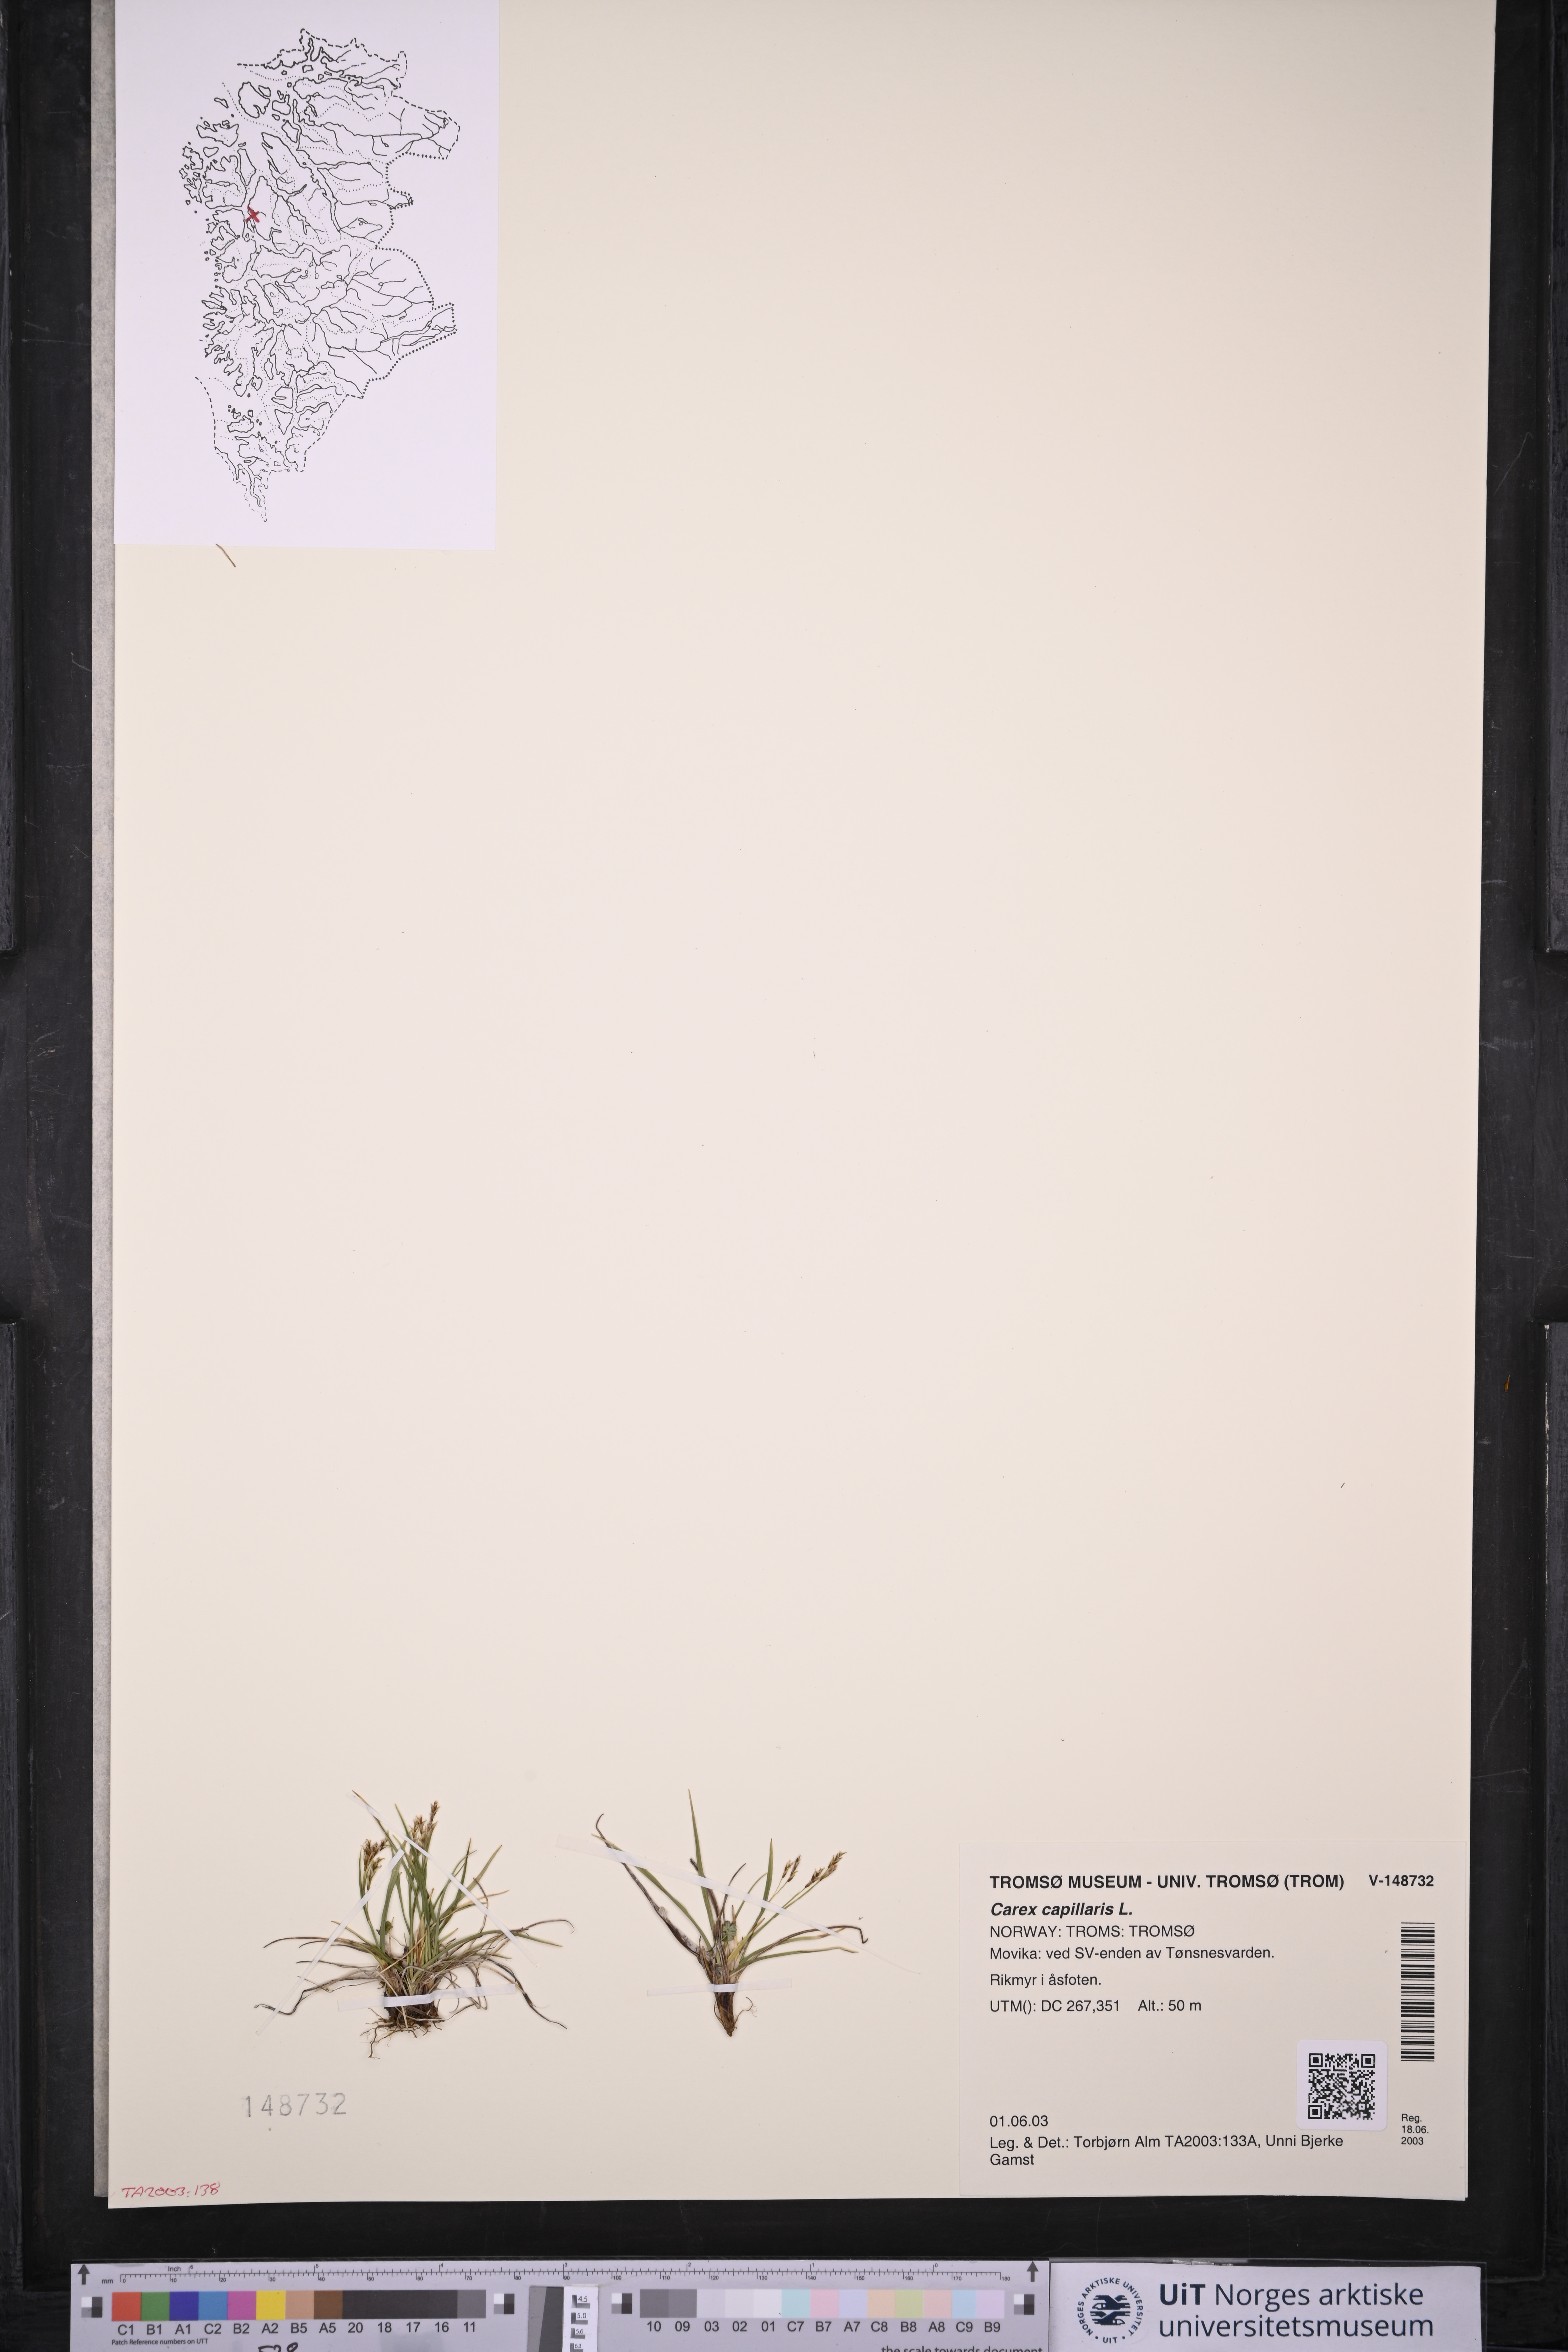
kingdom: Plantae
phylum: Tracheophyta
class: Liliopsida
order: Poales
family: Cyperaceae
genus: Carex
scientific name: Carex capillaris
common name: Hair sedge
